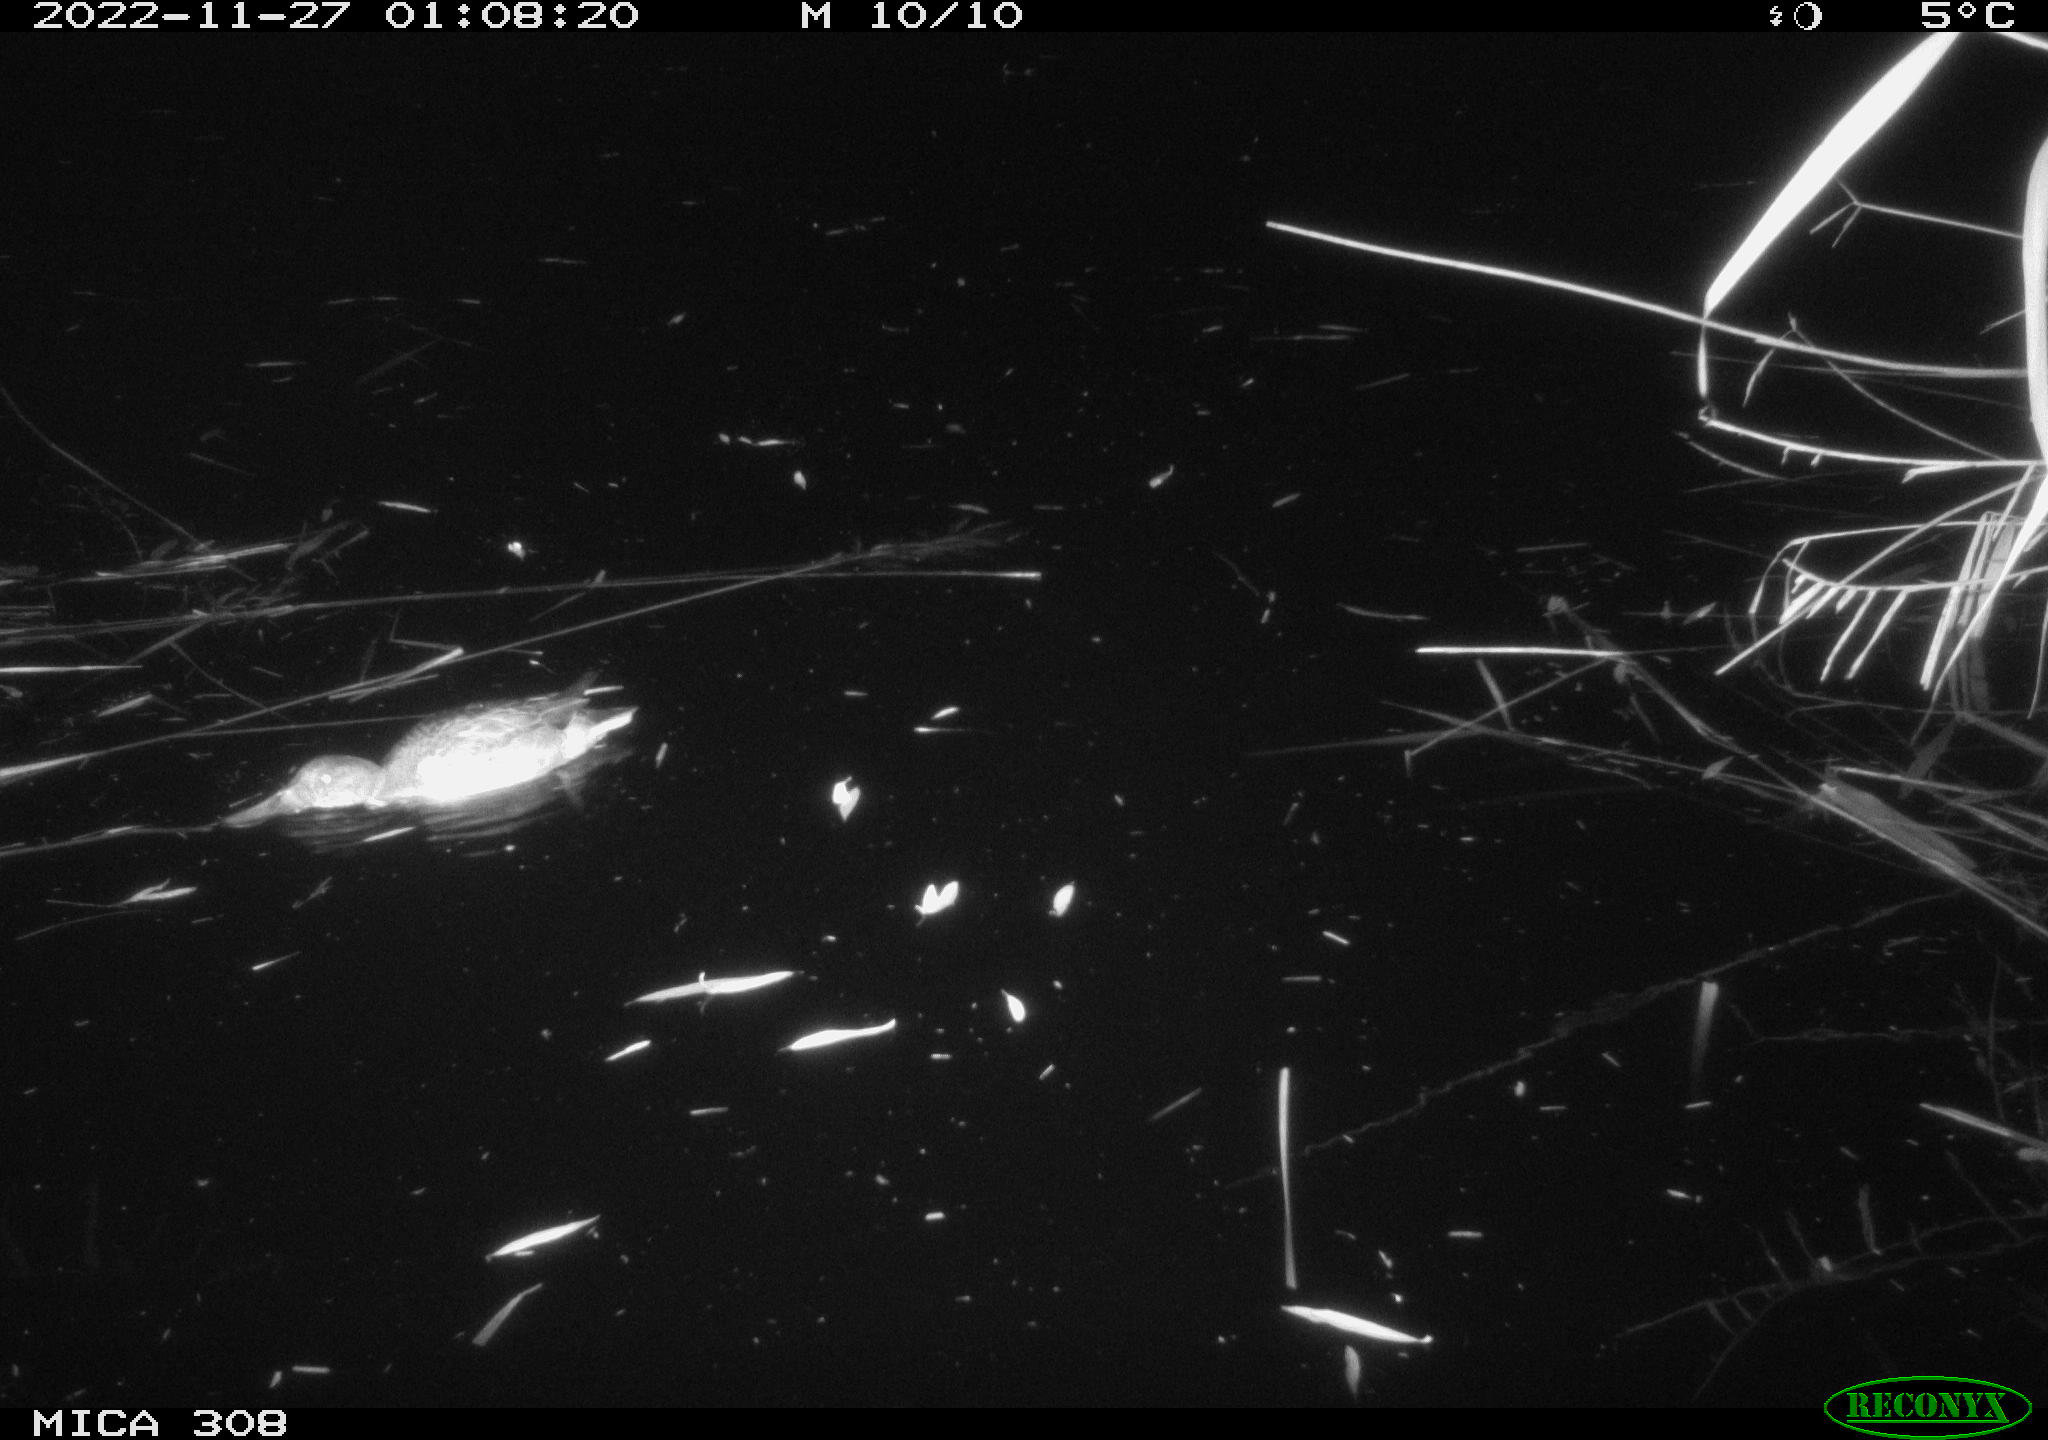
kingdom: Animalia
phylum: Chordata
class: Aves
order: Anseriformes
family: Anatidae
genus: Anas
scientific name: Anas
